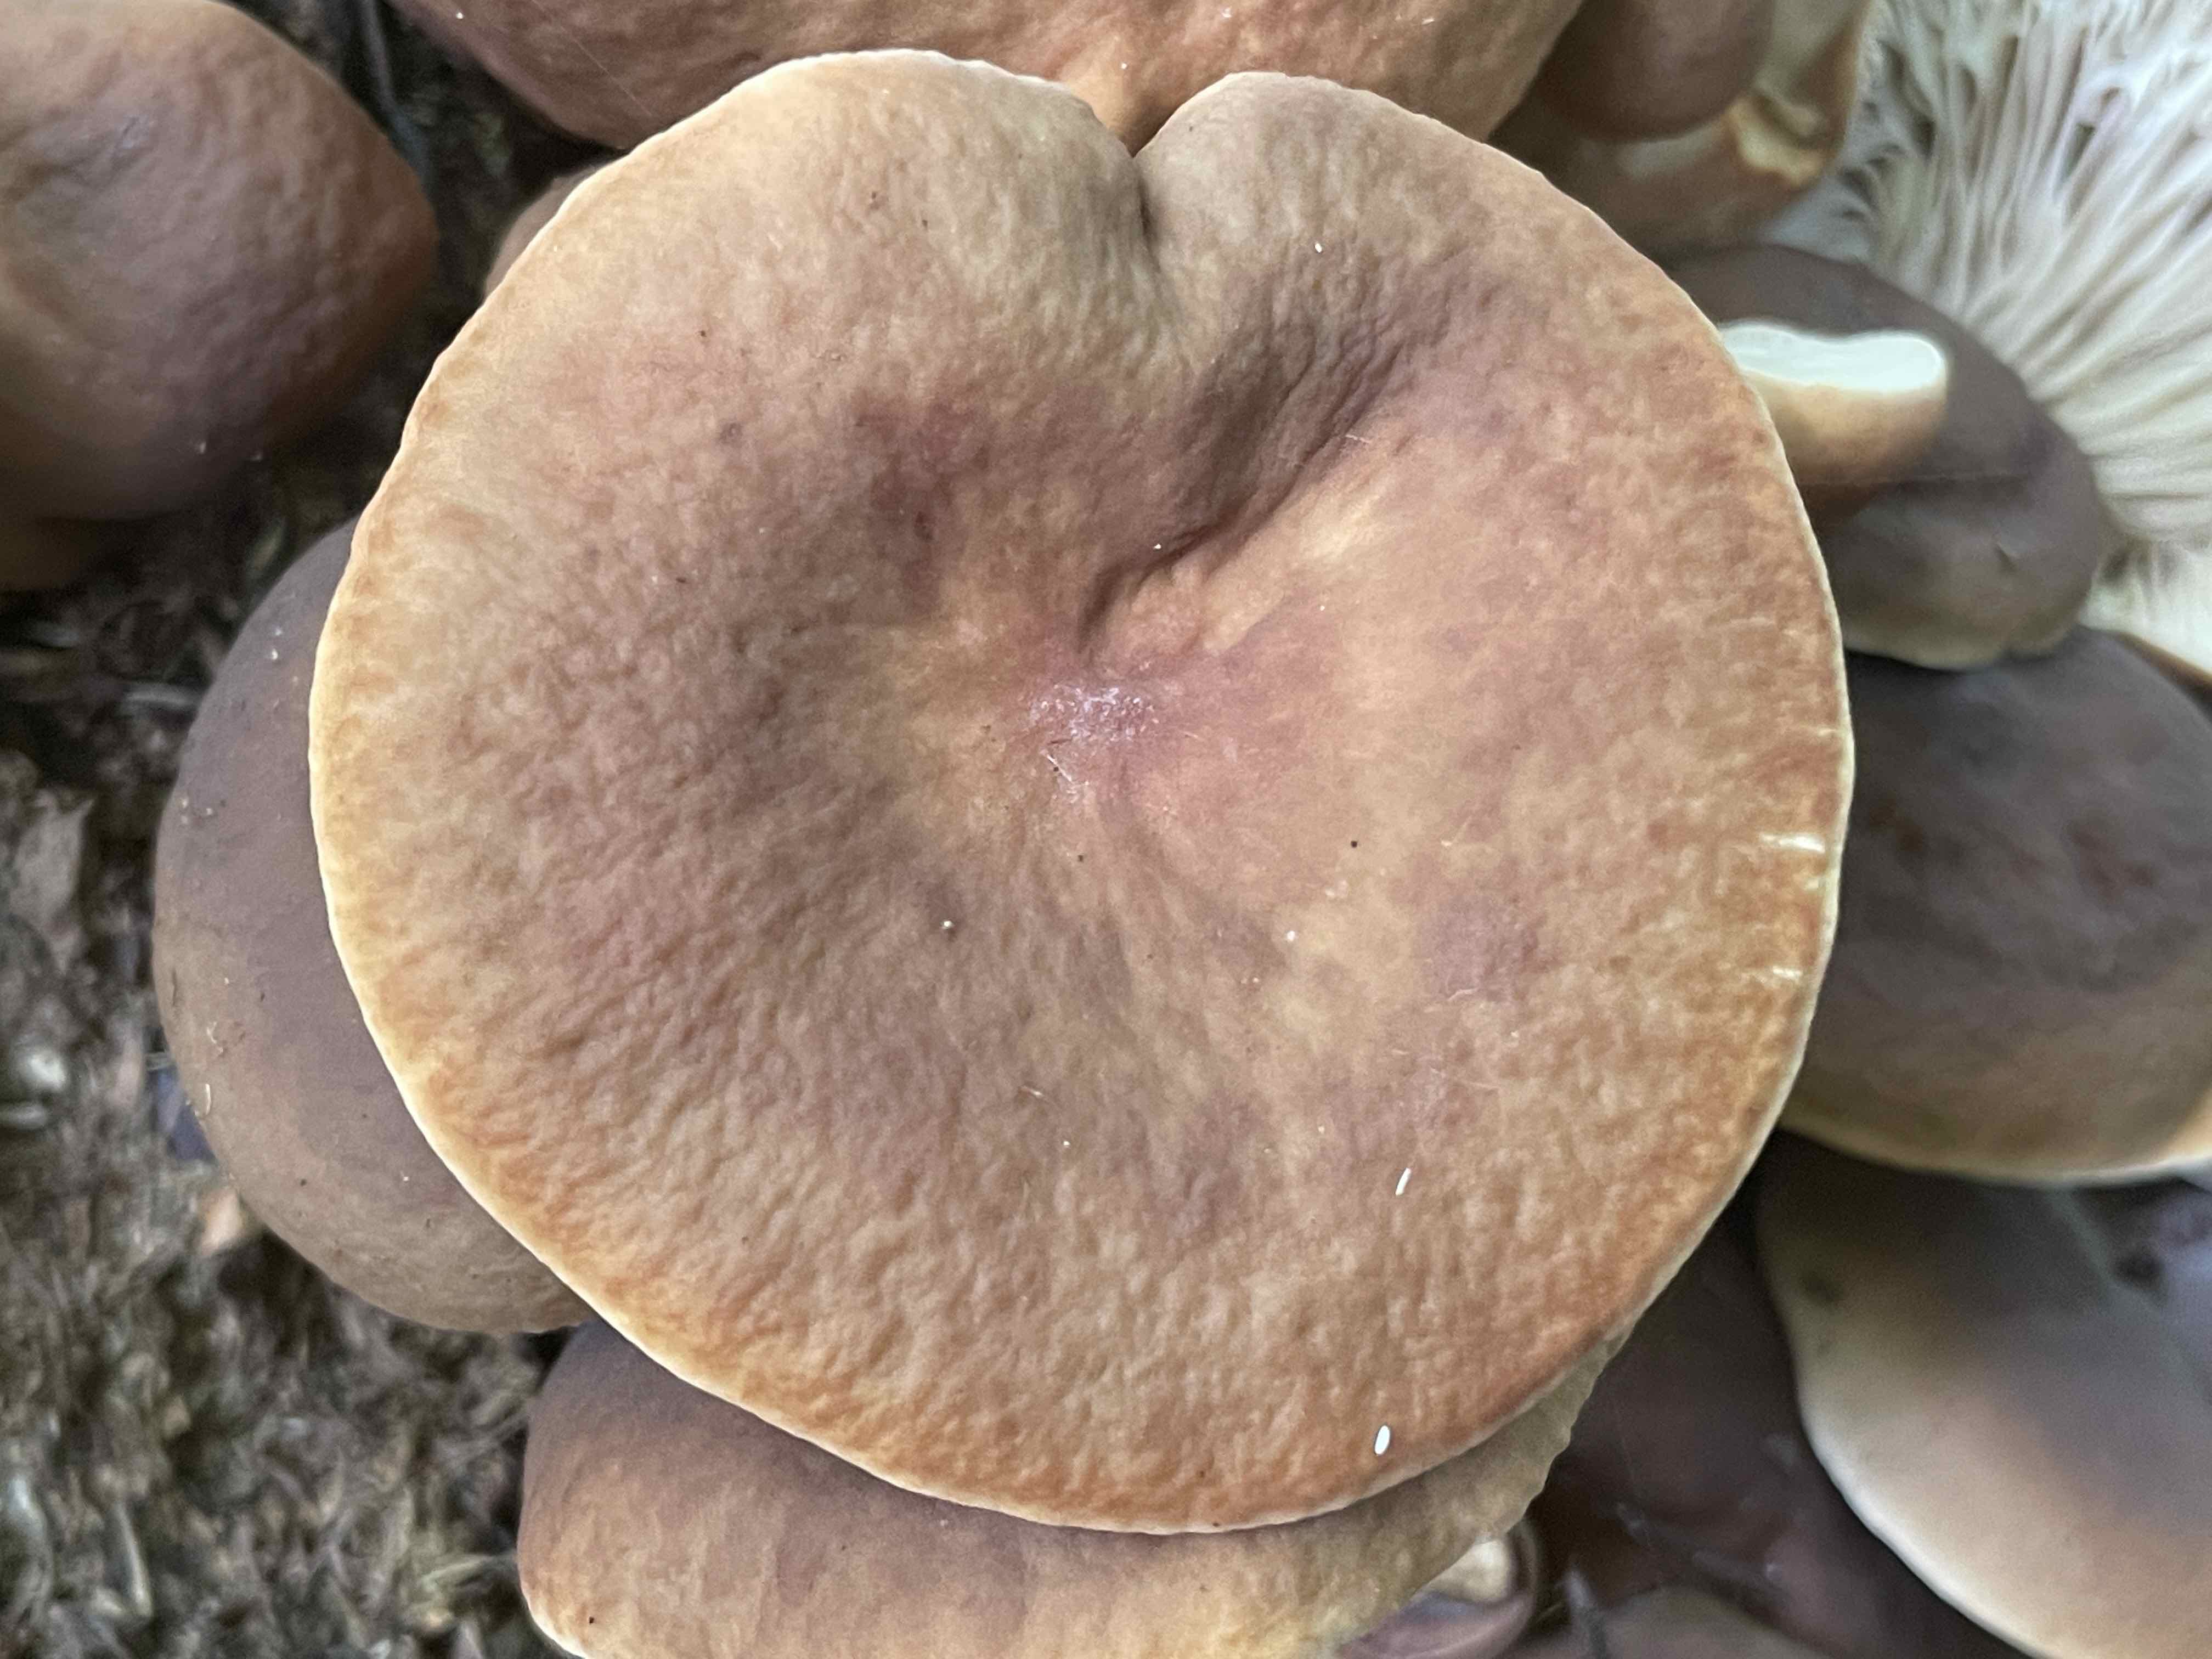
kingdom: Fungi
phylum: Basidiomycota
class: Agaricomycetes
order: Russulales
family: Russulaceae
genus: Lactarius
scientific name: Lactarius subdulcis
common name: sødlig mælkehat
